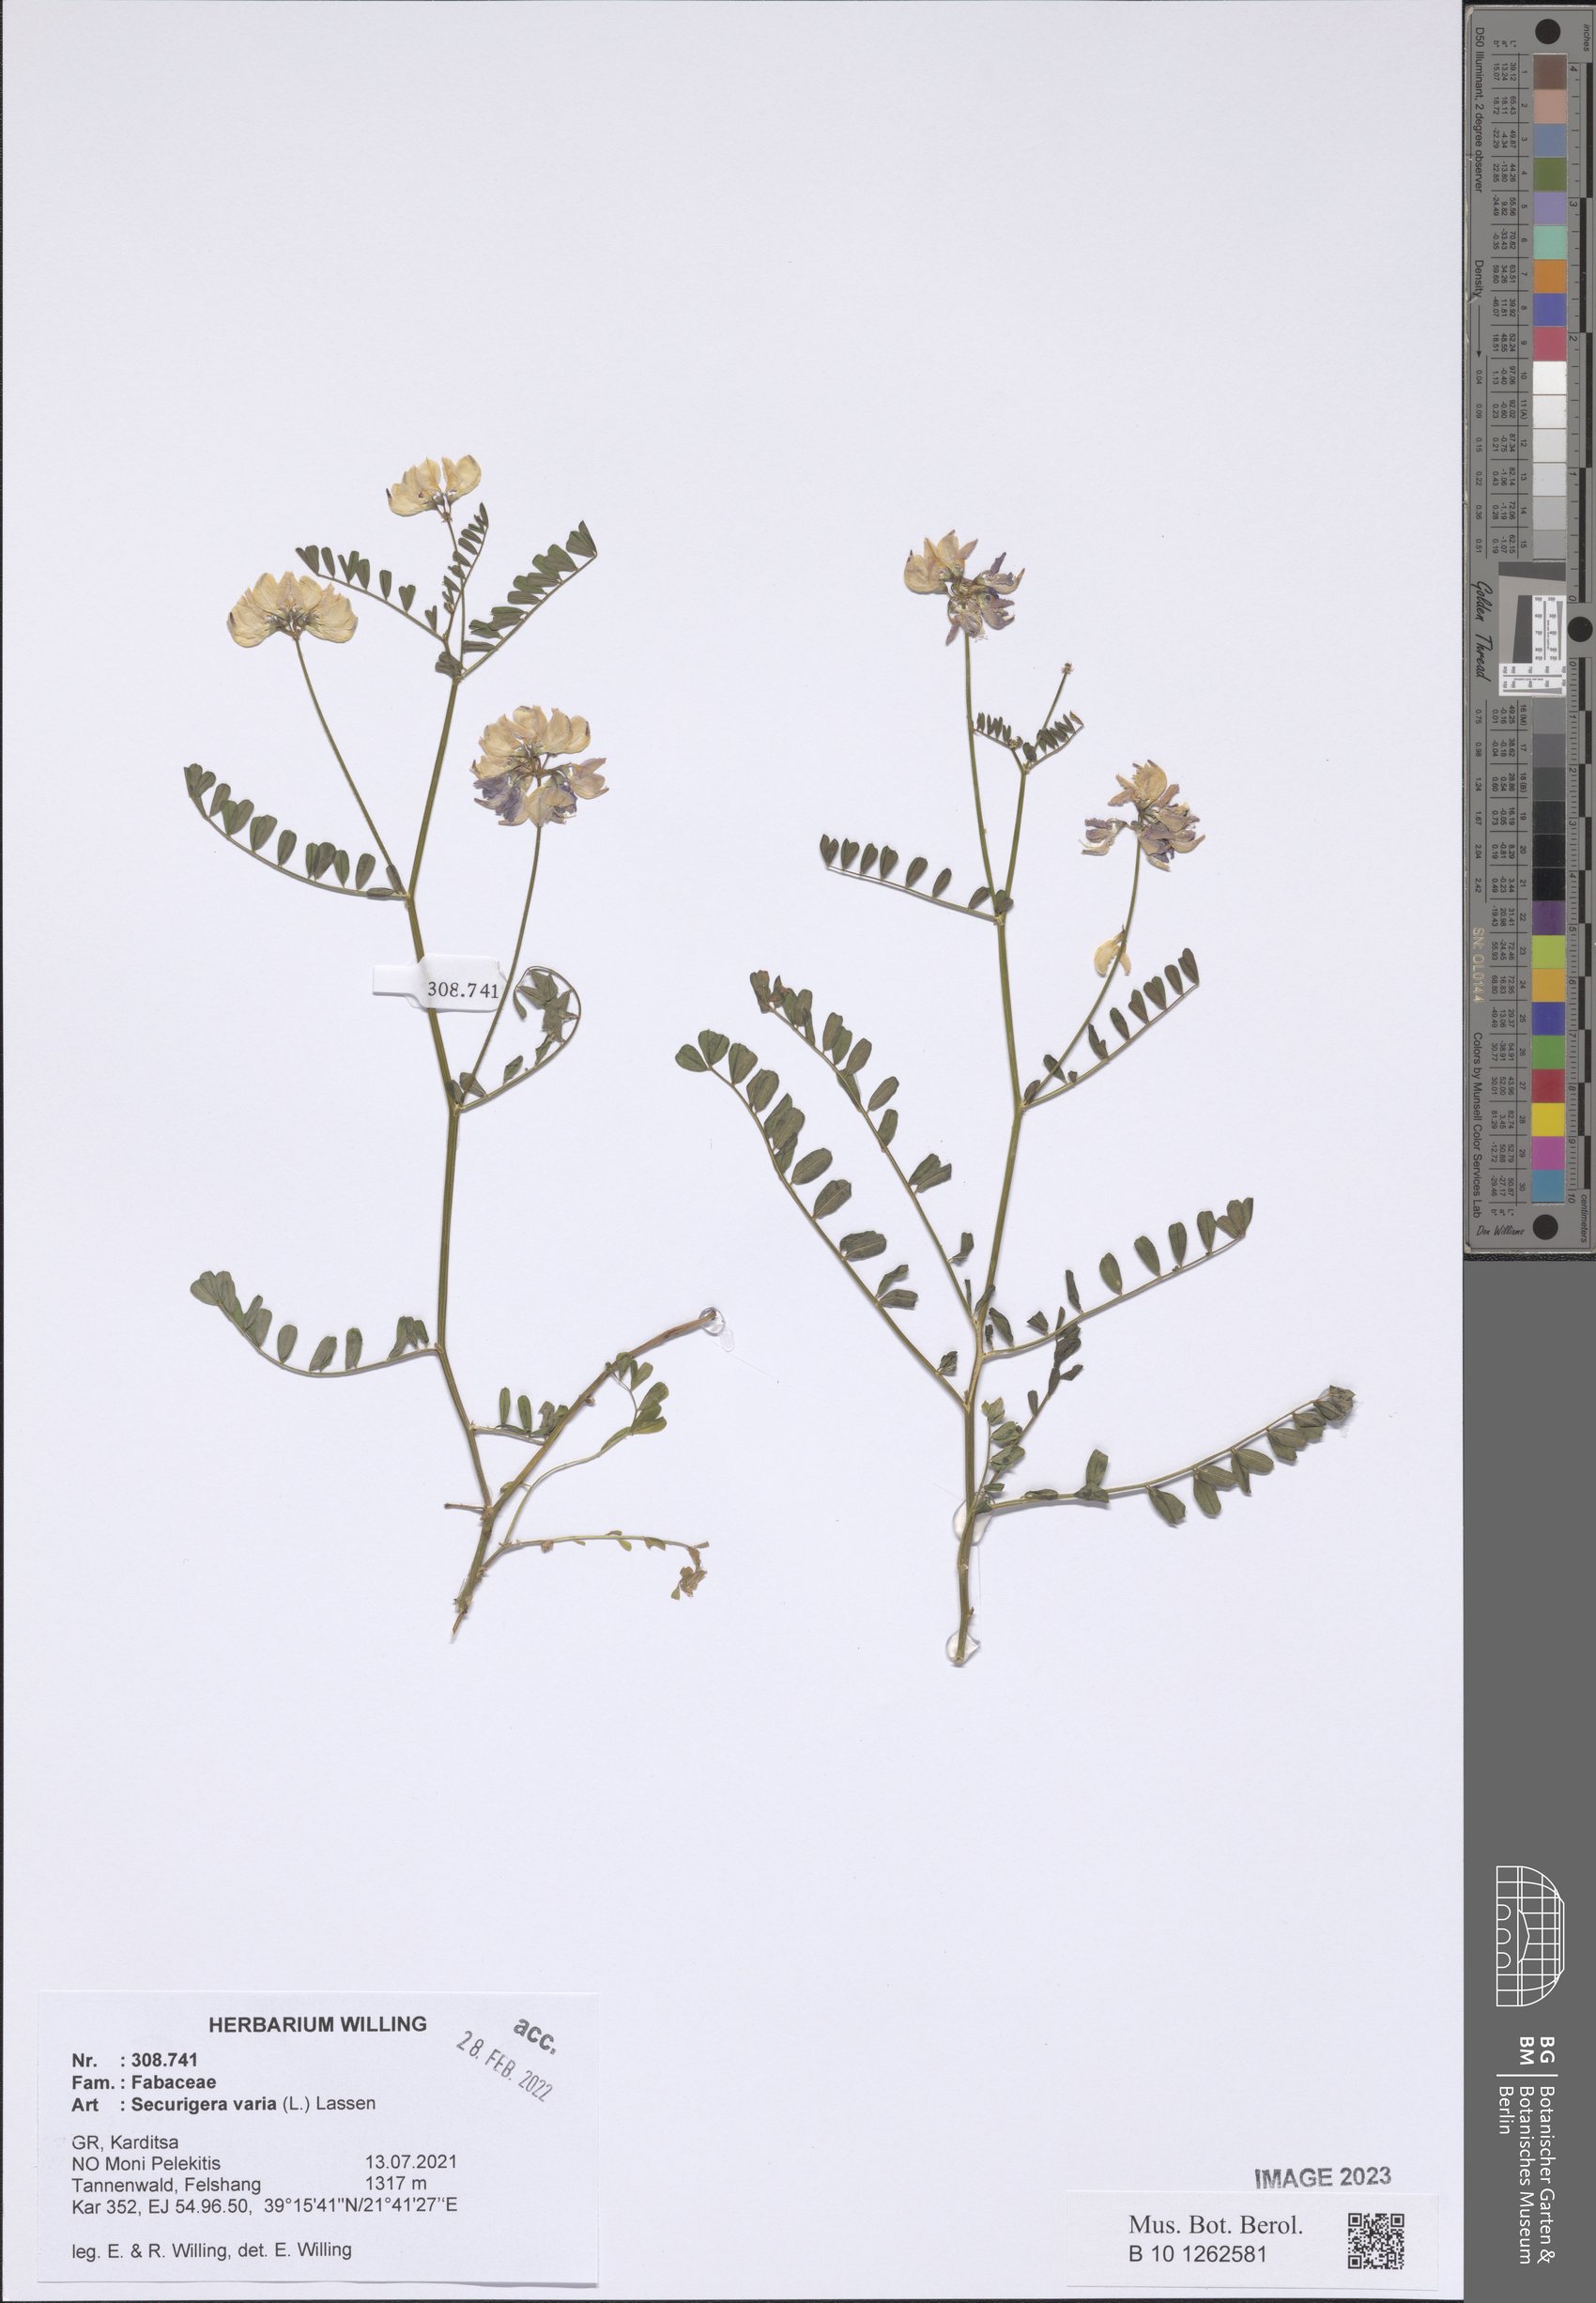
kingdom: Plantae
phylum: Tracheophyta
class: Magnoliopsida
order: Fabales
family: Fabaceae
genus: Coronilla
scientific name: Coronilla varia
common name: Crownvetch
